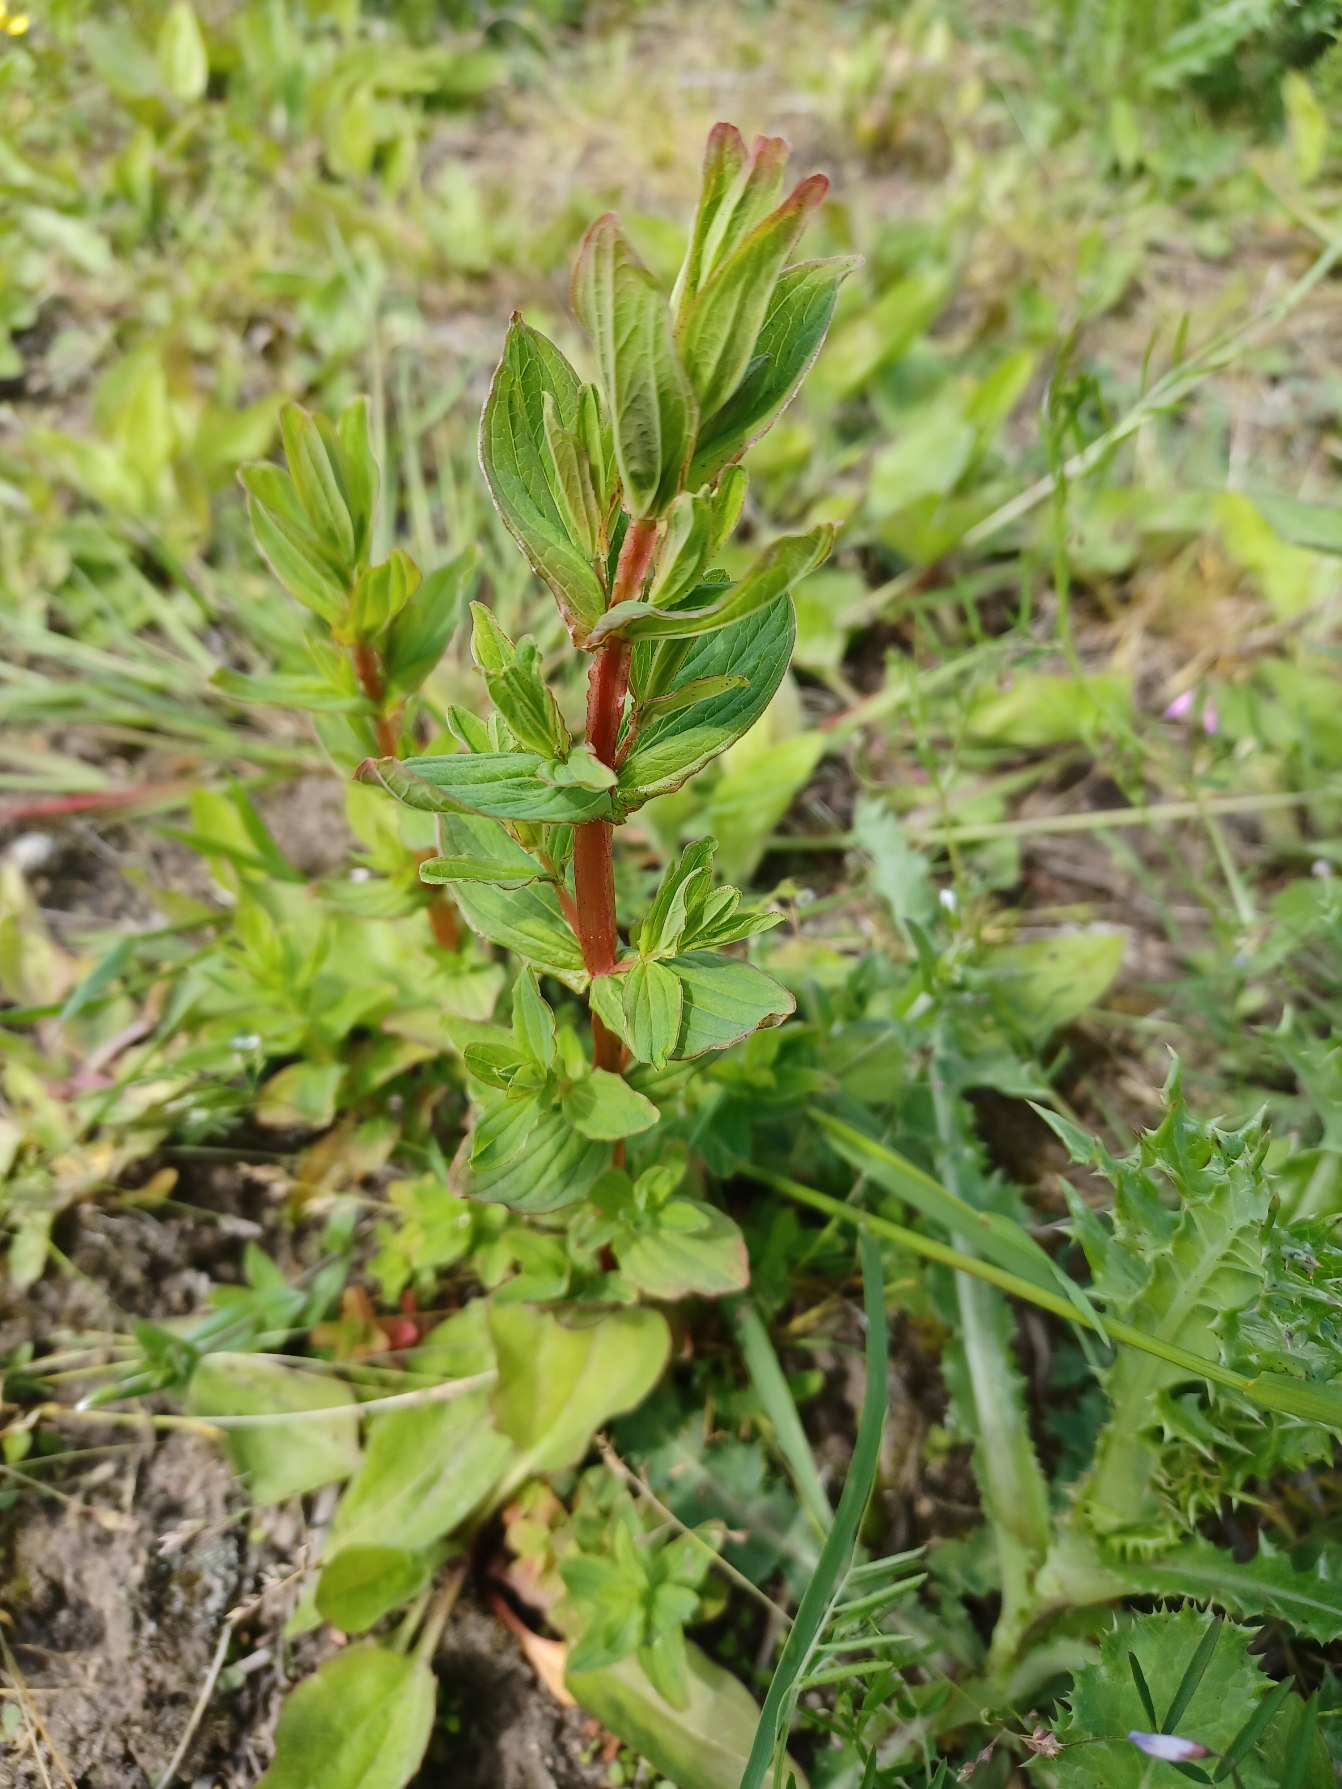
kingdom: Plantae
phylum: Tracheophyta
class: Magnoliopsida
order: Malpighiales
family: Hypericaceae
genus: Hypericum
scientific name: Hypericum tetrapterum
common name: Vinget perikon
